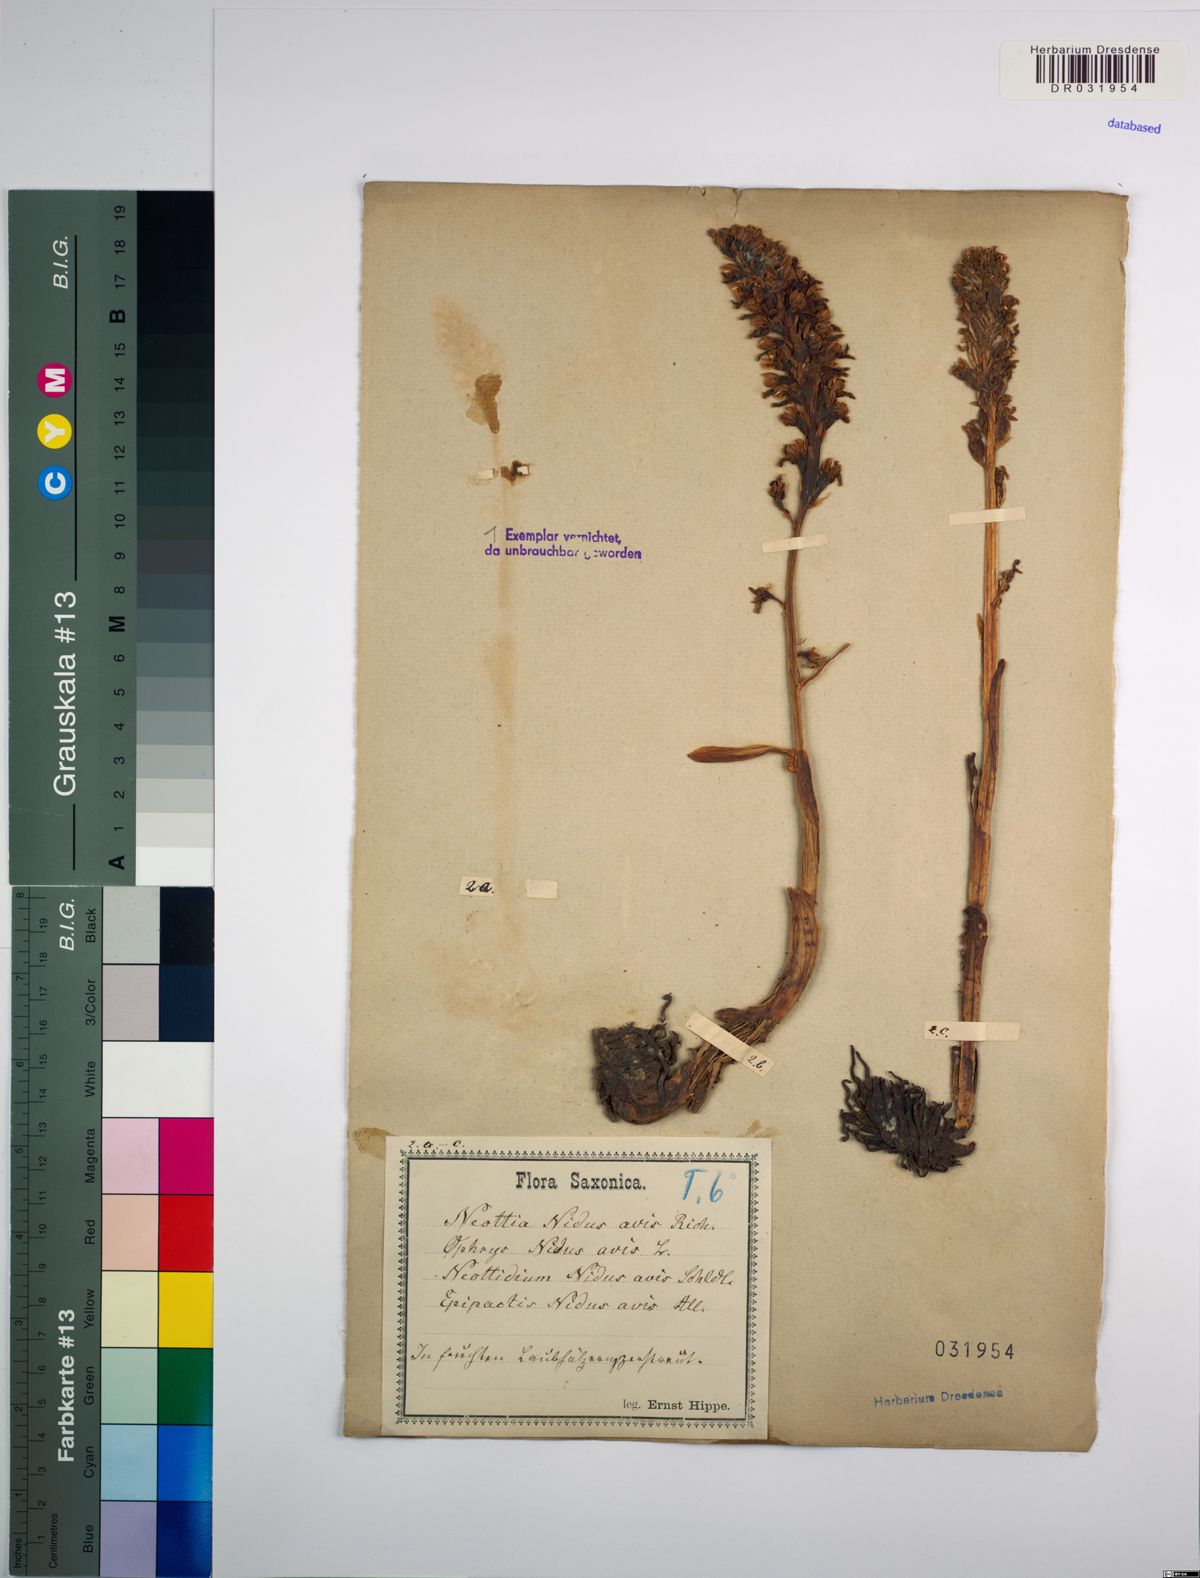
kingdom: Plantae
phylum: Tracheophyta
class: Liliopsida
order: Asparagales
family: Orchidaceae
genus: Neottia
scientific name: Neottia nidus-avis
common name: Bird's-nest orchid
